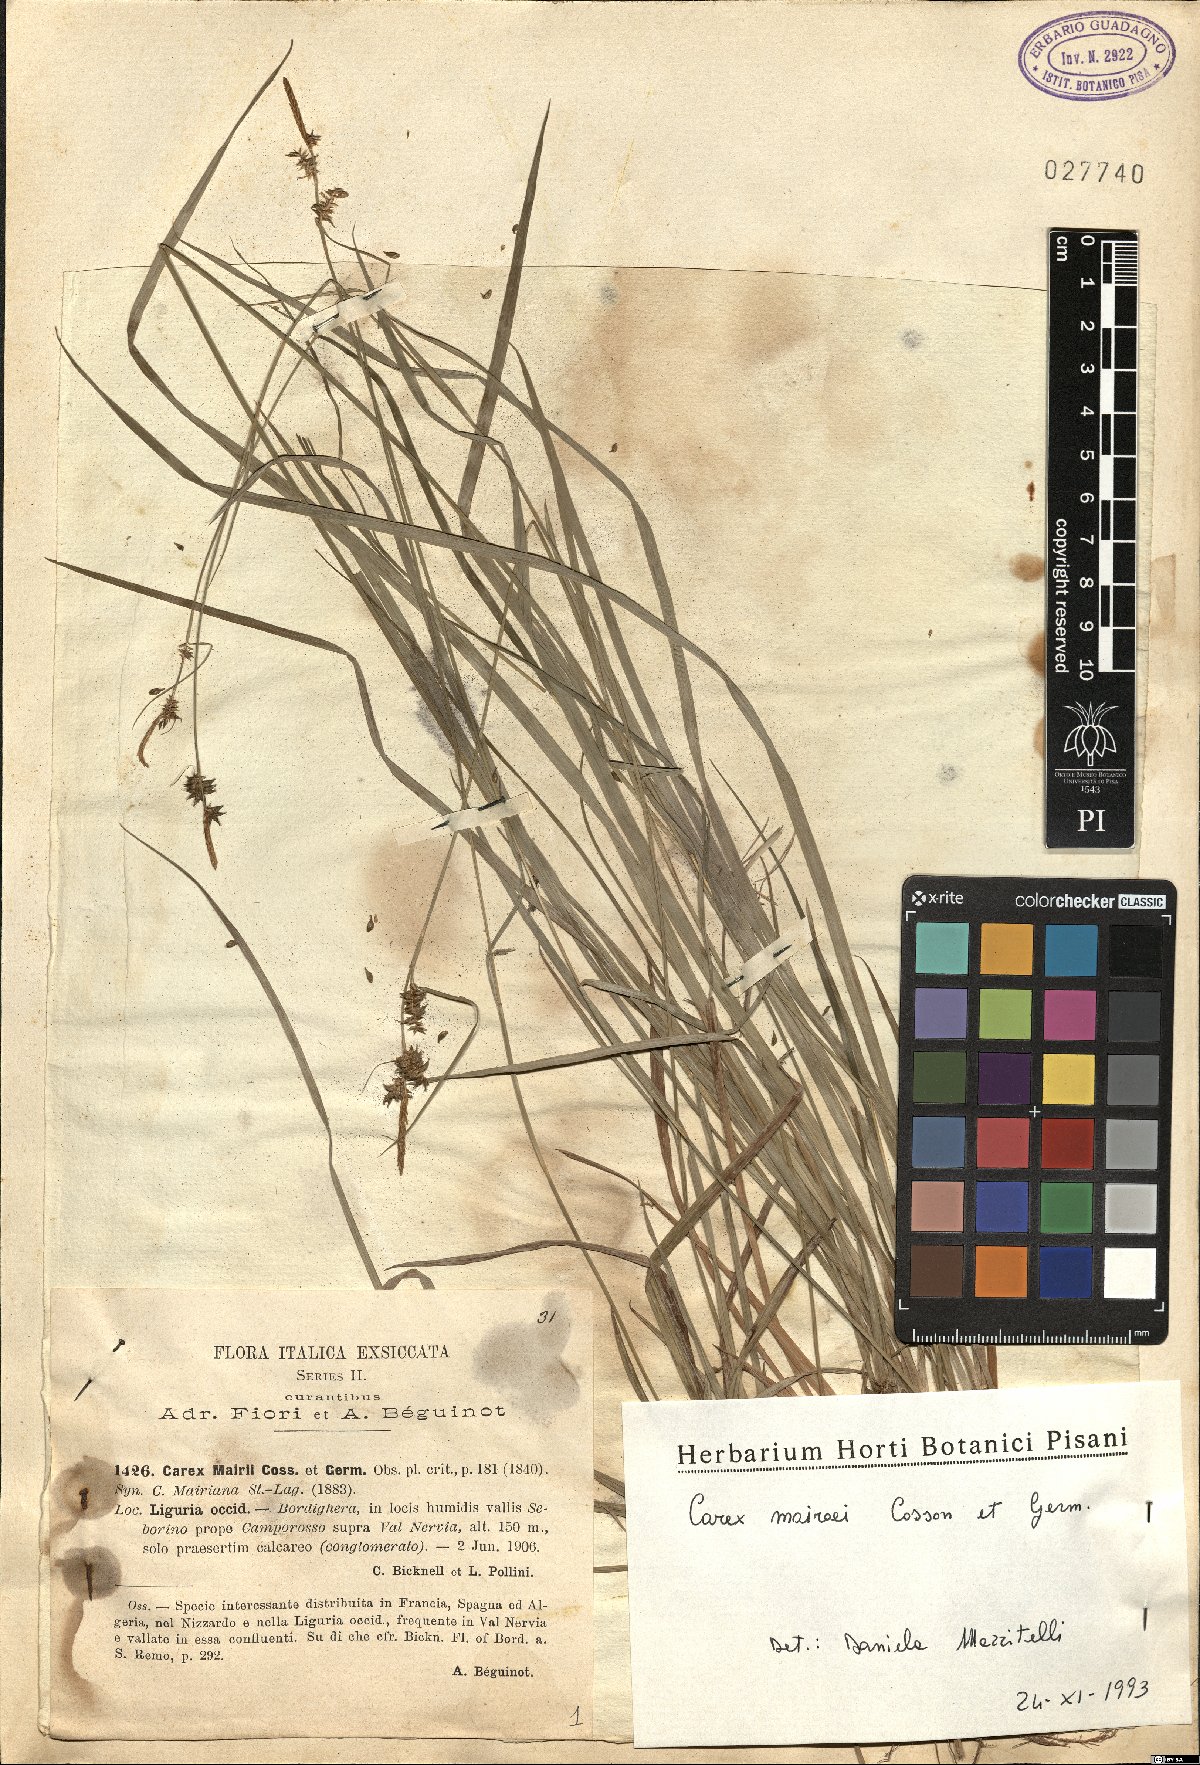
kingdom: Plantae
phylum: Tracheophyta
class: Liliopsida
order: Poales
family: Cyperaceae
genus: Carex
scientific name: Carex mairei
